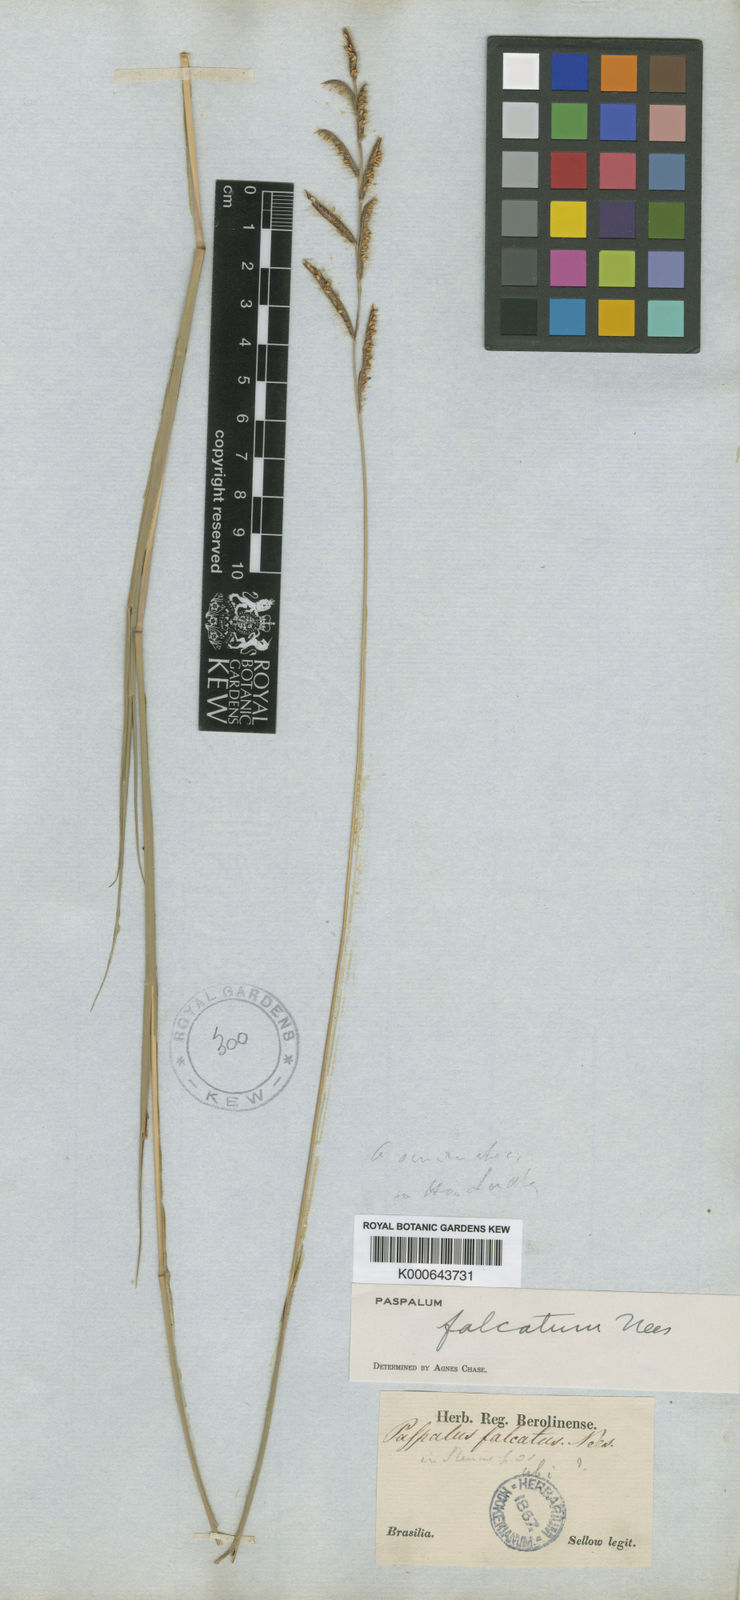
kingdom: Plantae
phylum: Tracheophyta
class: Liliopsida
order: Poales
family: Poaceae
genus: Paspalum
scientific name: Paspalum falcatum
